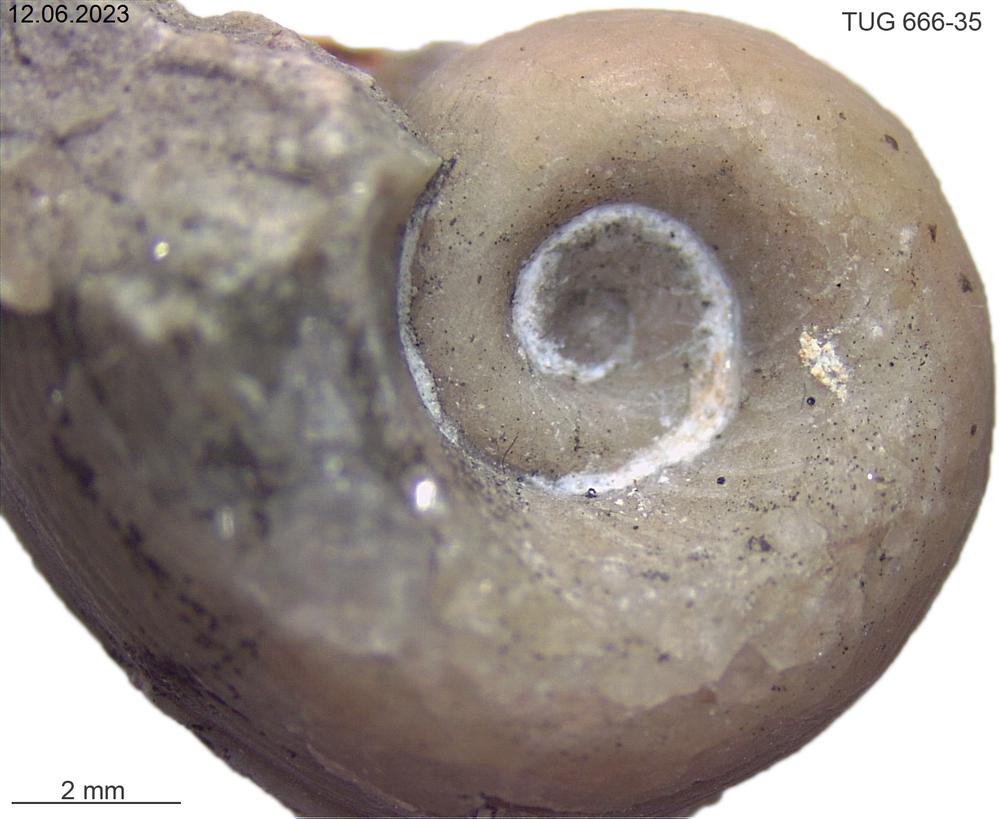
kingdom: Animalia
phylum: Mollusca
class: Gastropoda
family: Bucaniidae
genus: Bucania
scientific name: Bucania Bellerophon radiata
